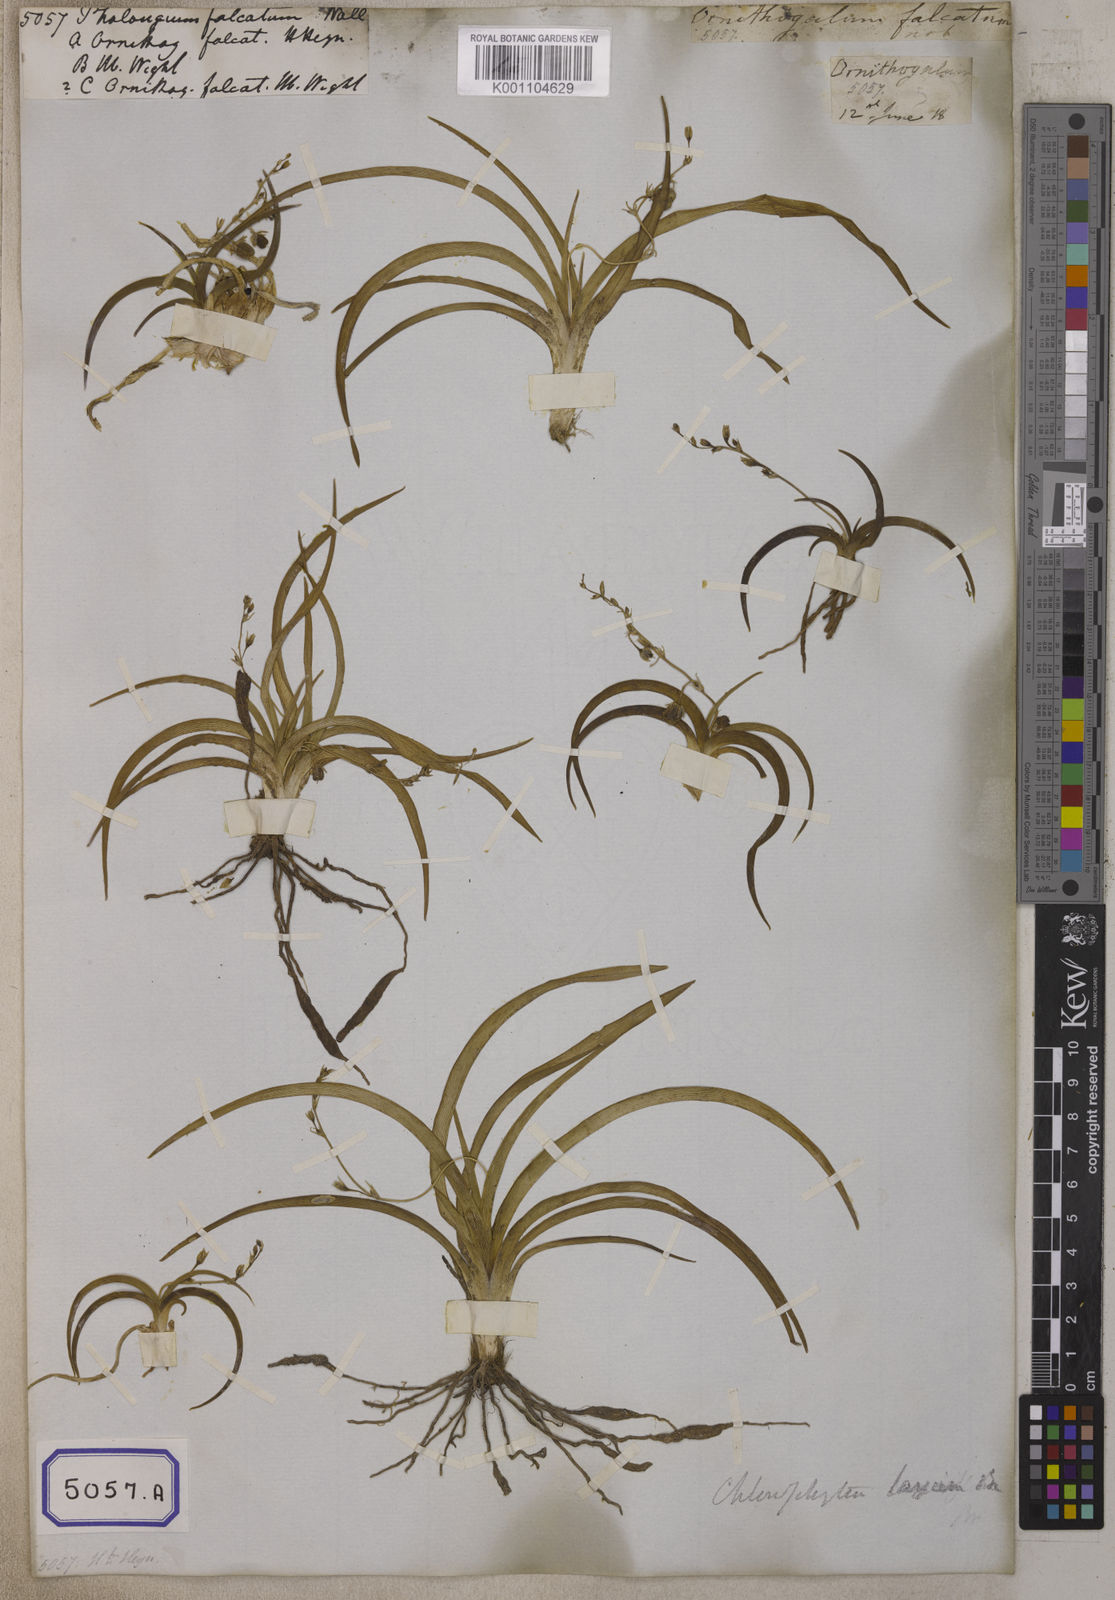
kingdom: Plantae
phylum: Tracheophyta
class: Liliopsida
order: Asparagales
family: Iridaceae
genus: Phalangium
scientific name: Phalangium
